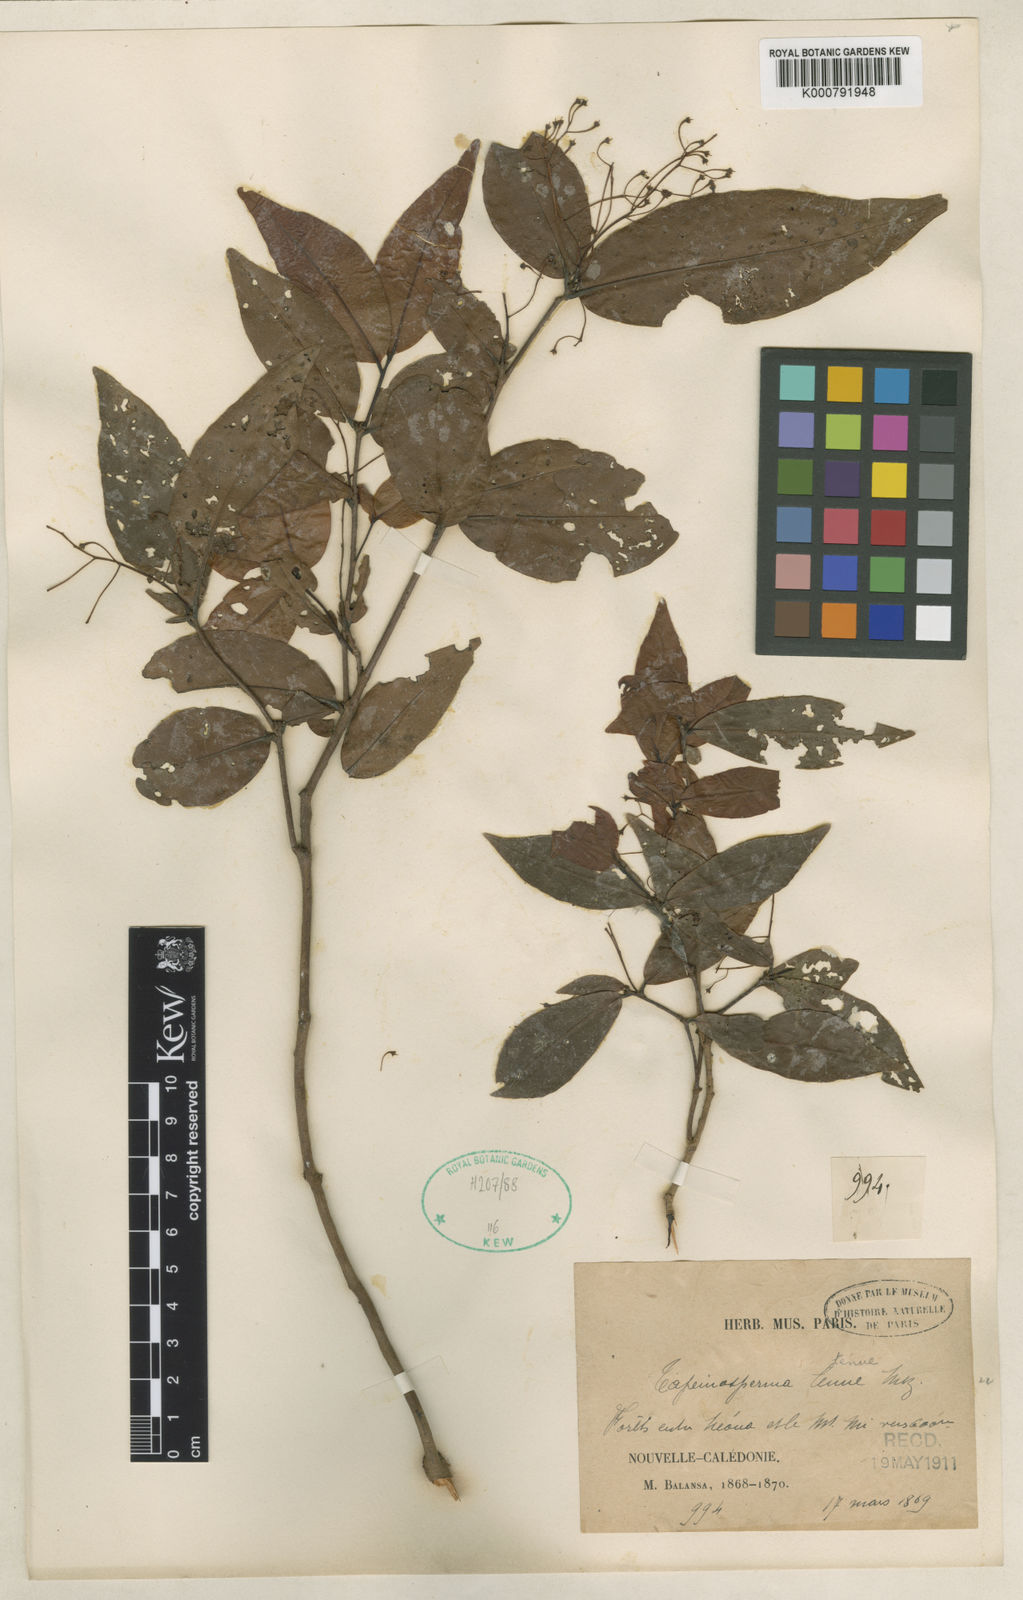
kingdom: Plantae
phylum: Tracheophyta
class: Magnoliopsida
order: Ericales
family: Primulaceae
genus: Tapeinosperma
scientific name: Tapeinosperma tenue
